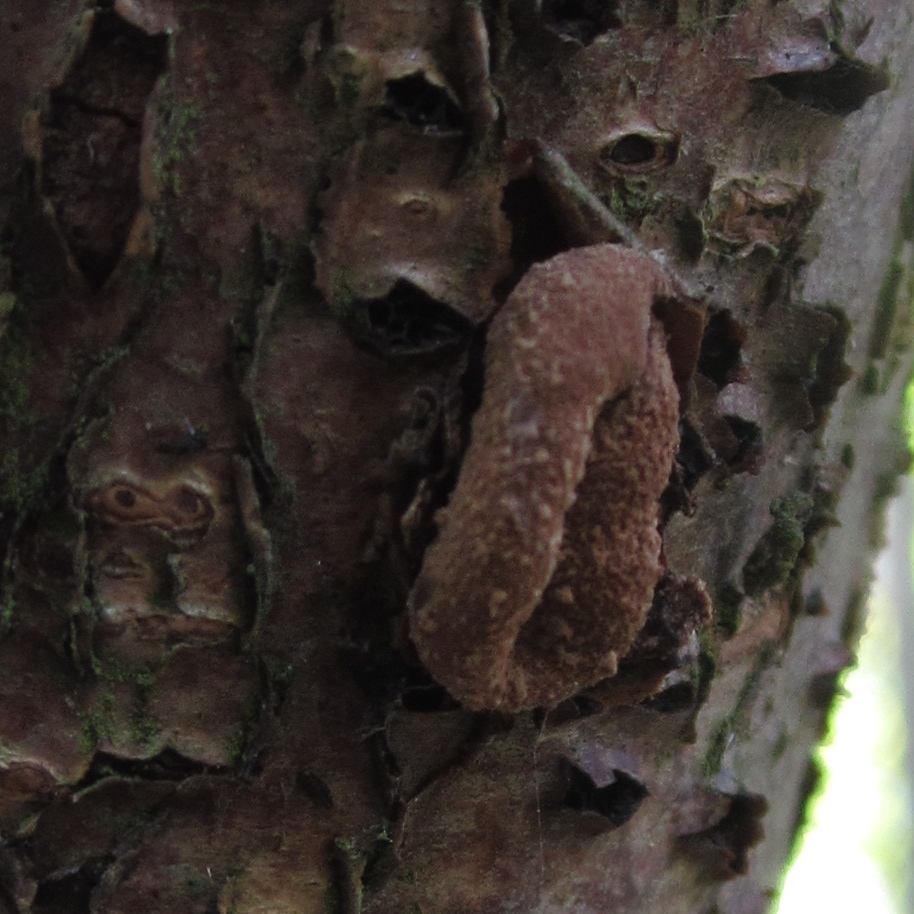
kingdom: Fungi
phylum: Ascomycota
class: Leotiomycetes
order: Helotiales
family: Cenangiaceae
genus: Encoelia
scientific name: Encoelia furfuracea
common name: hassel-læderskive
